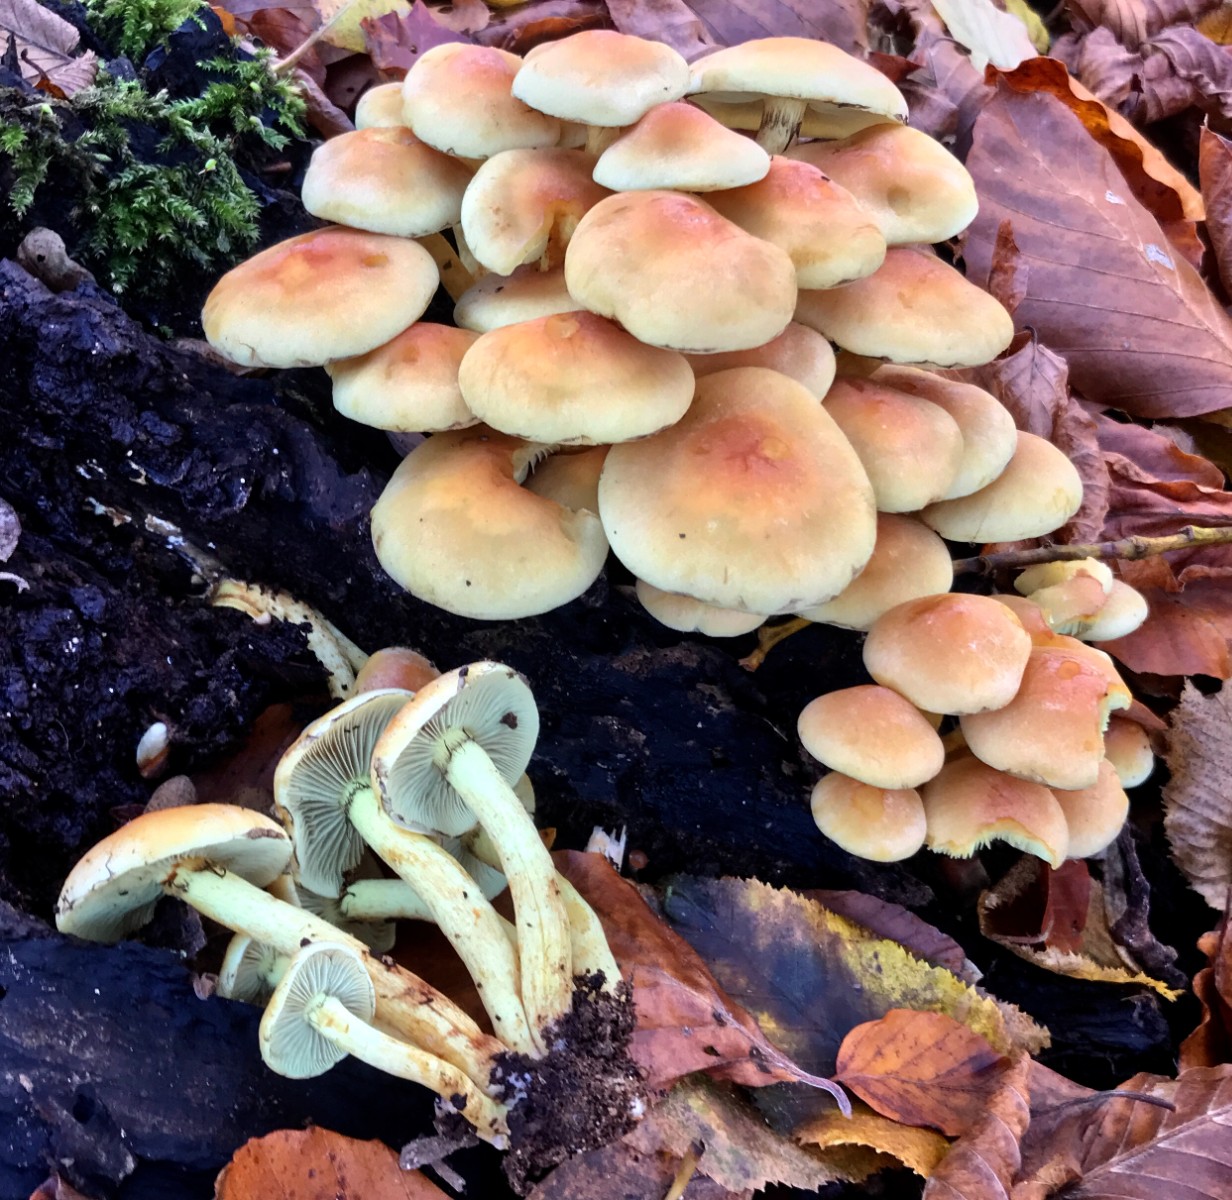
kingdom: Fungi
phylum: Basidiomycota
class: Agaricomycetes
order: Agaricales
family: Strophariaceae
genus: Hypholoma
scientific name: Hypholoma fasciculare
